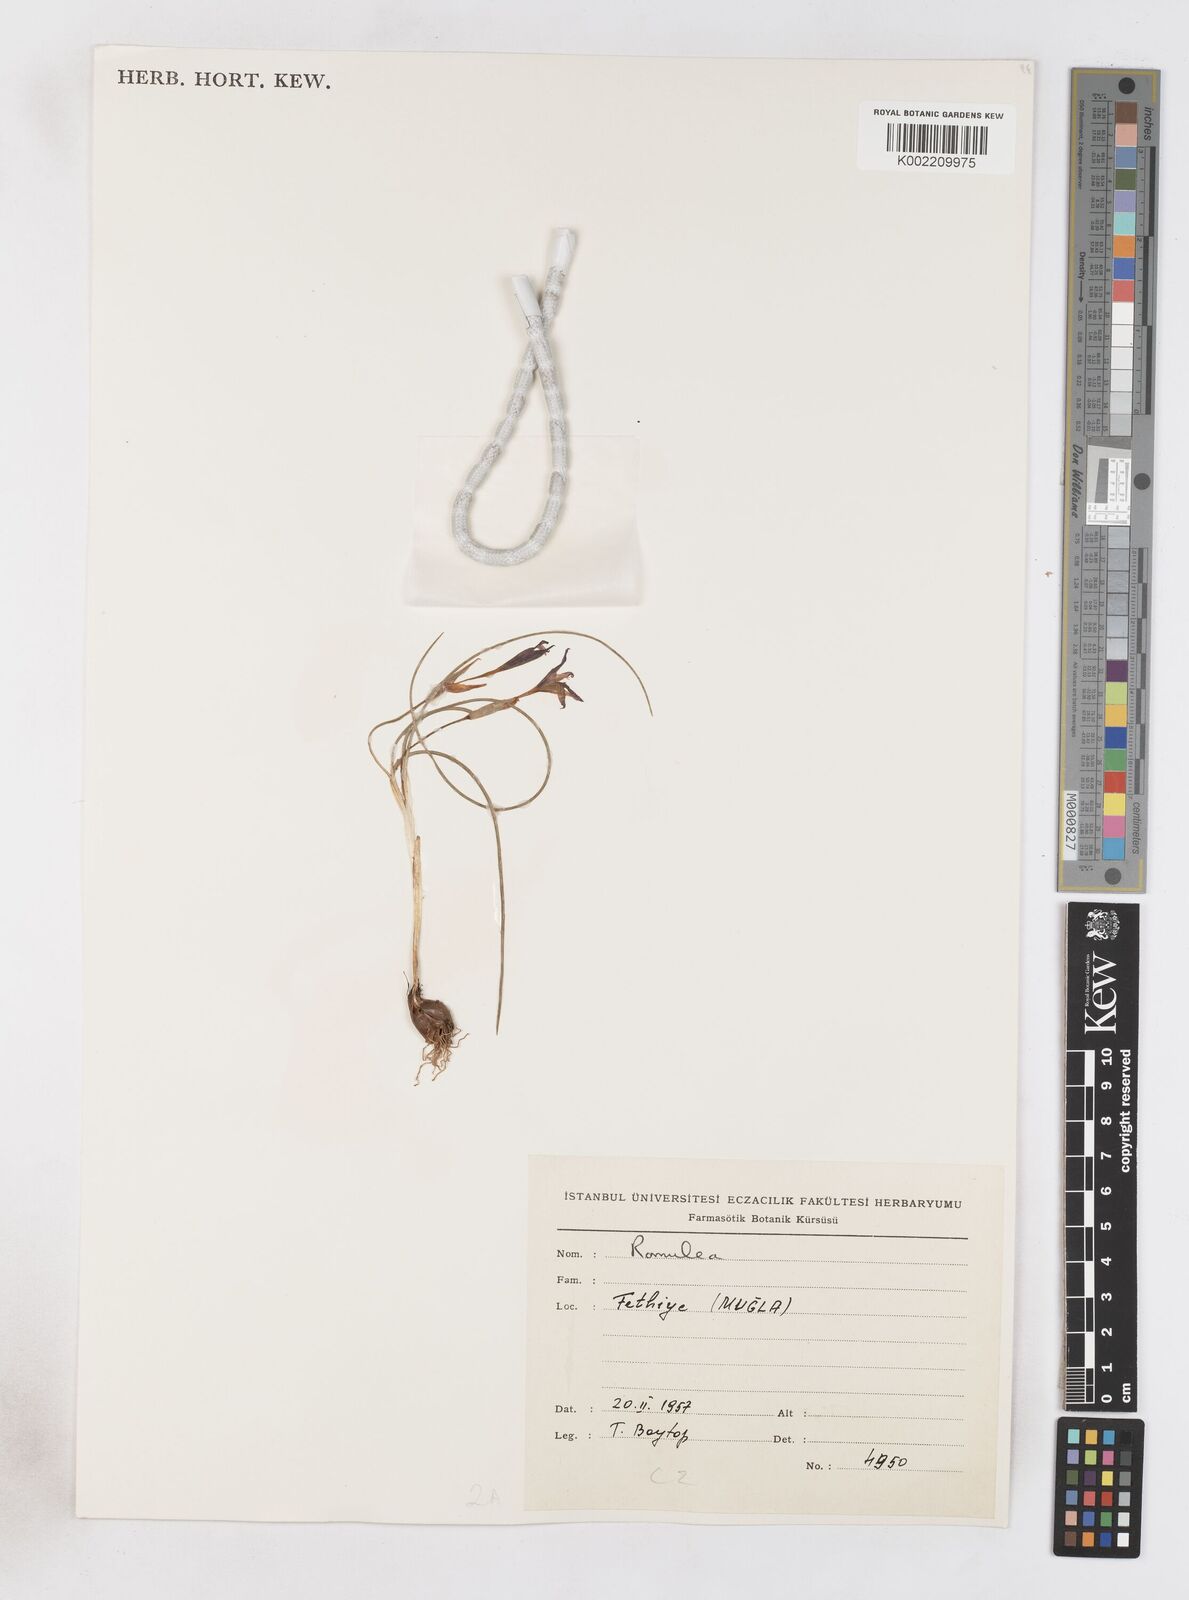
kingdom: Plantae
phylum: Tracheophyta
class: Liliopsida
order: Asparagales
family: Iridaceae
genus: Romulea
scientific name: Romulea tempskyana
